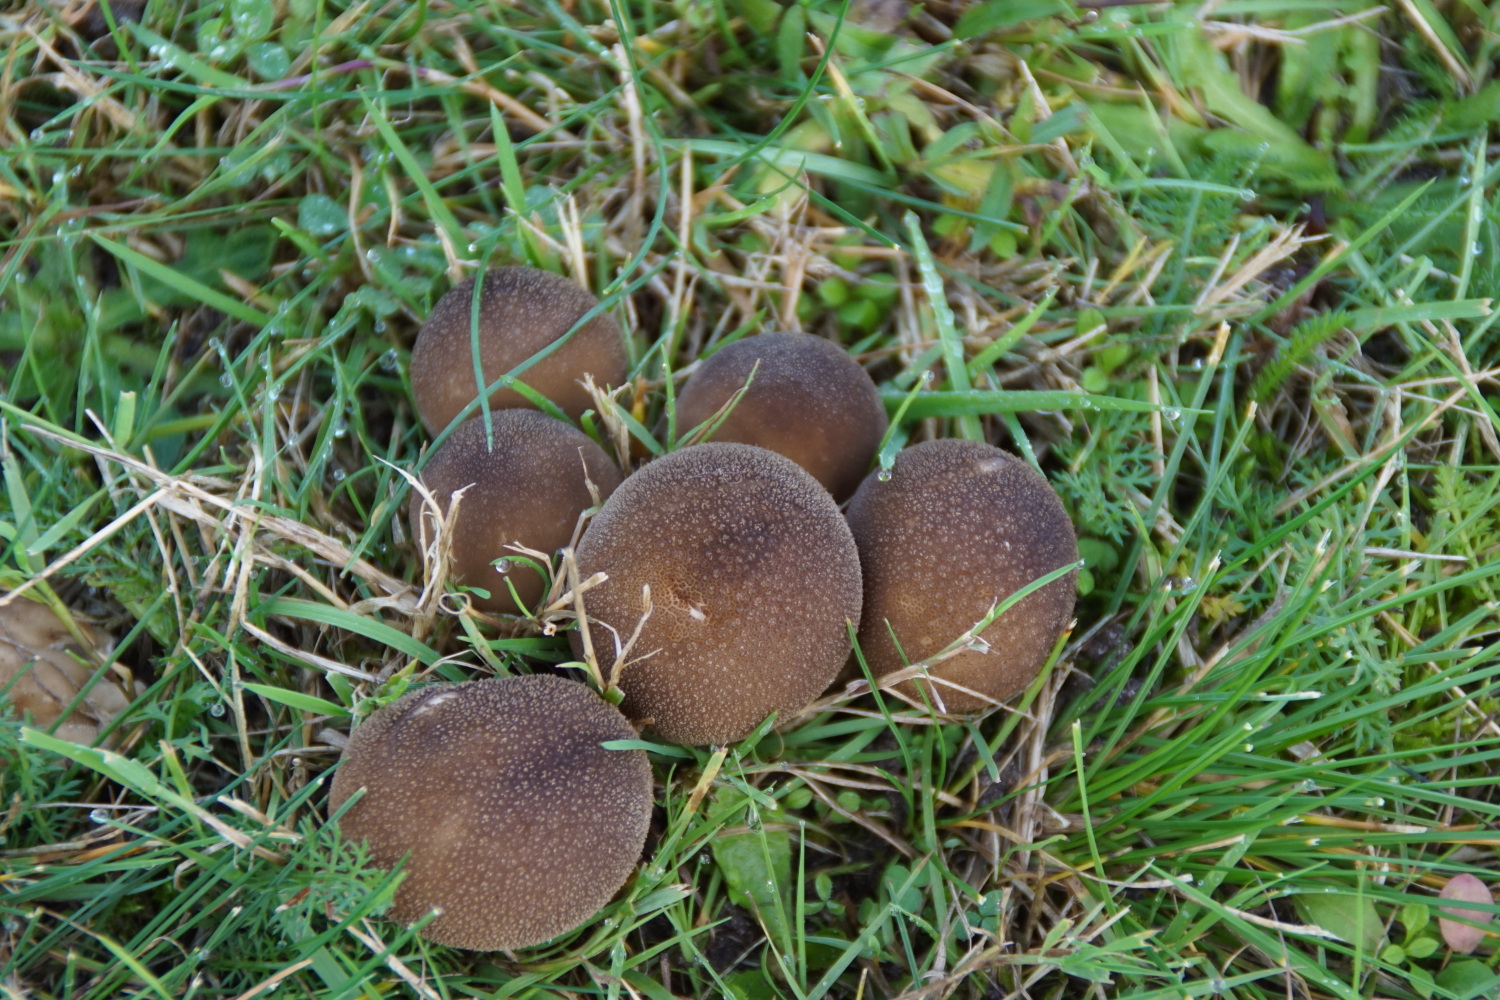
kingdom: Fungi
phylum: Basidiomycota
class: Agaricomycetes
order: Agaricales
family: Agaricaceae
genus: Lycoperdon
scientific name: Lycoperdon
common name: støvbold
